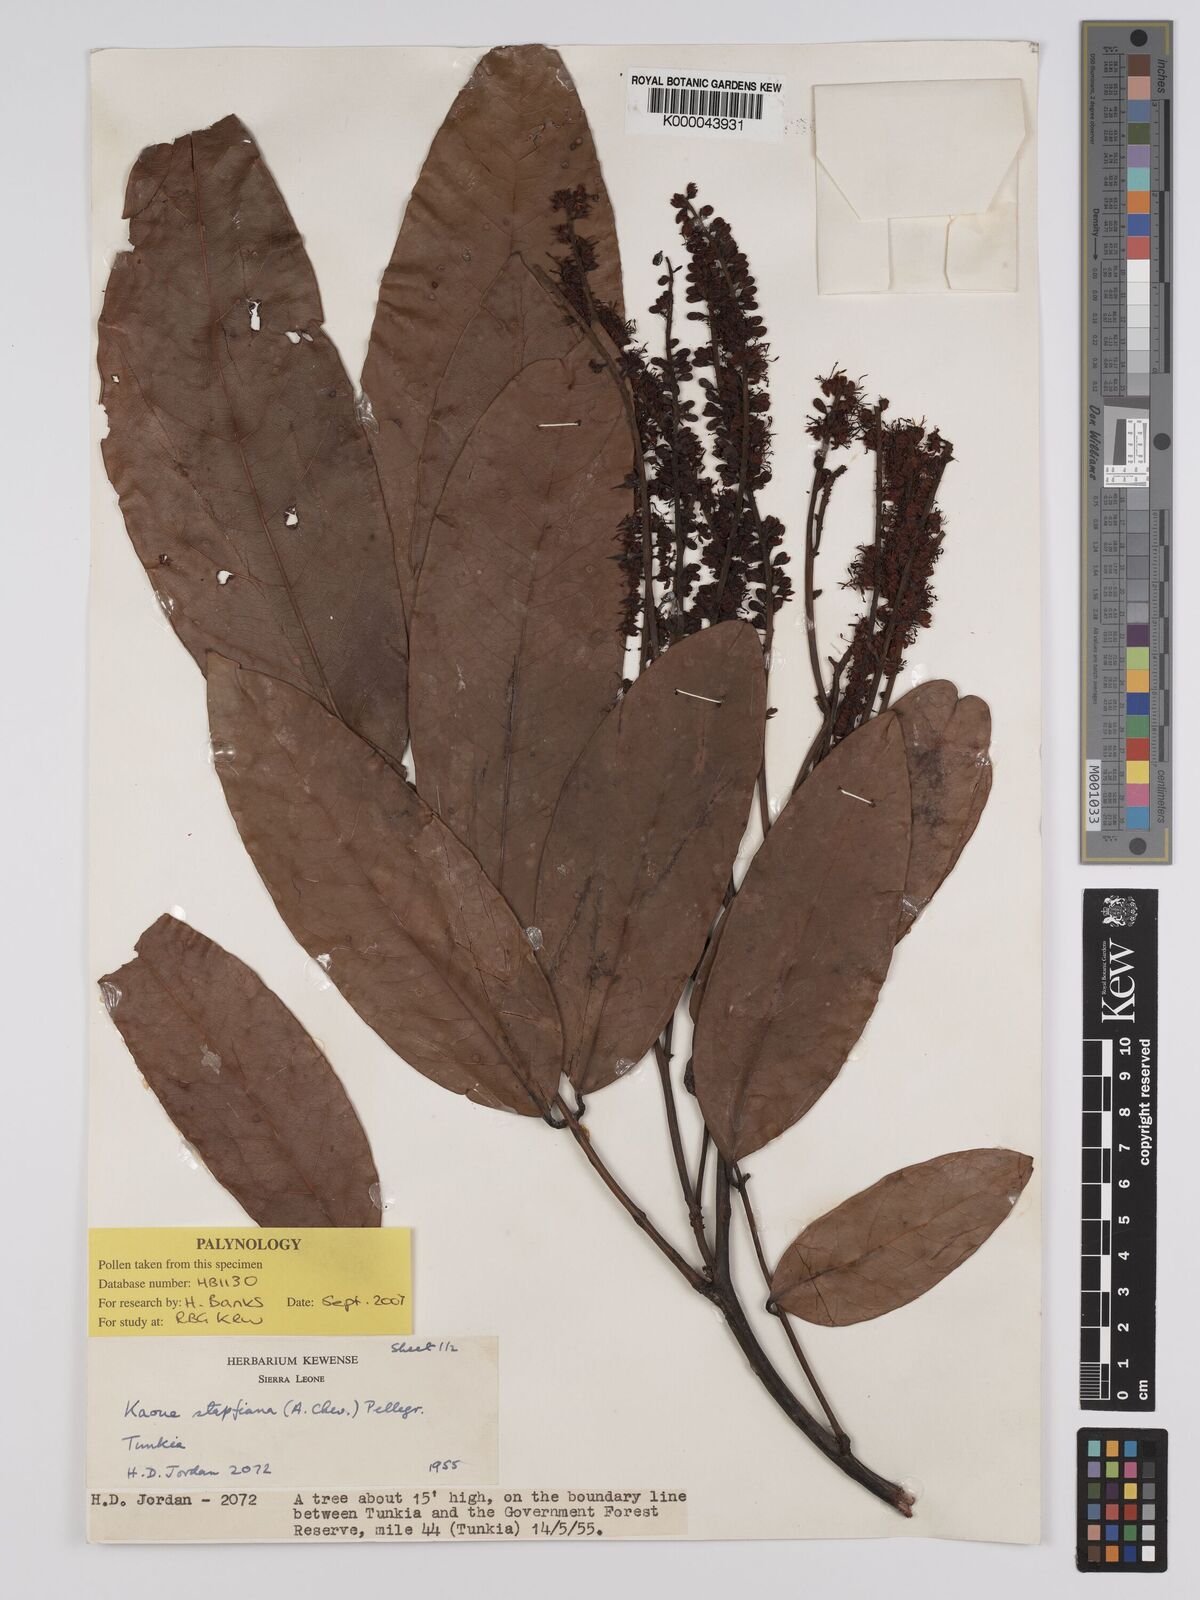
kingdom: Plantae
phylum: Tracheophyta
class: Magnoliopsida
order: Fabales
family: Fabaceae
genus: Stachyothyrsus
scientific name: Stachyothyrsus
